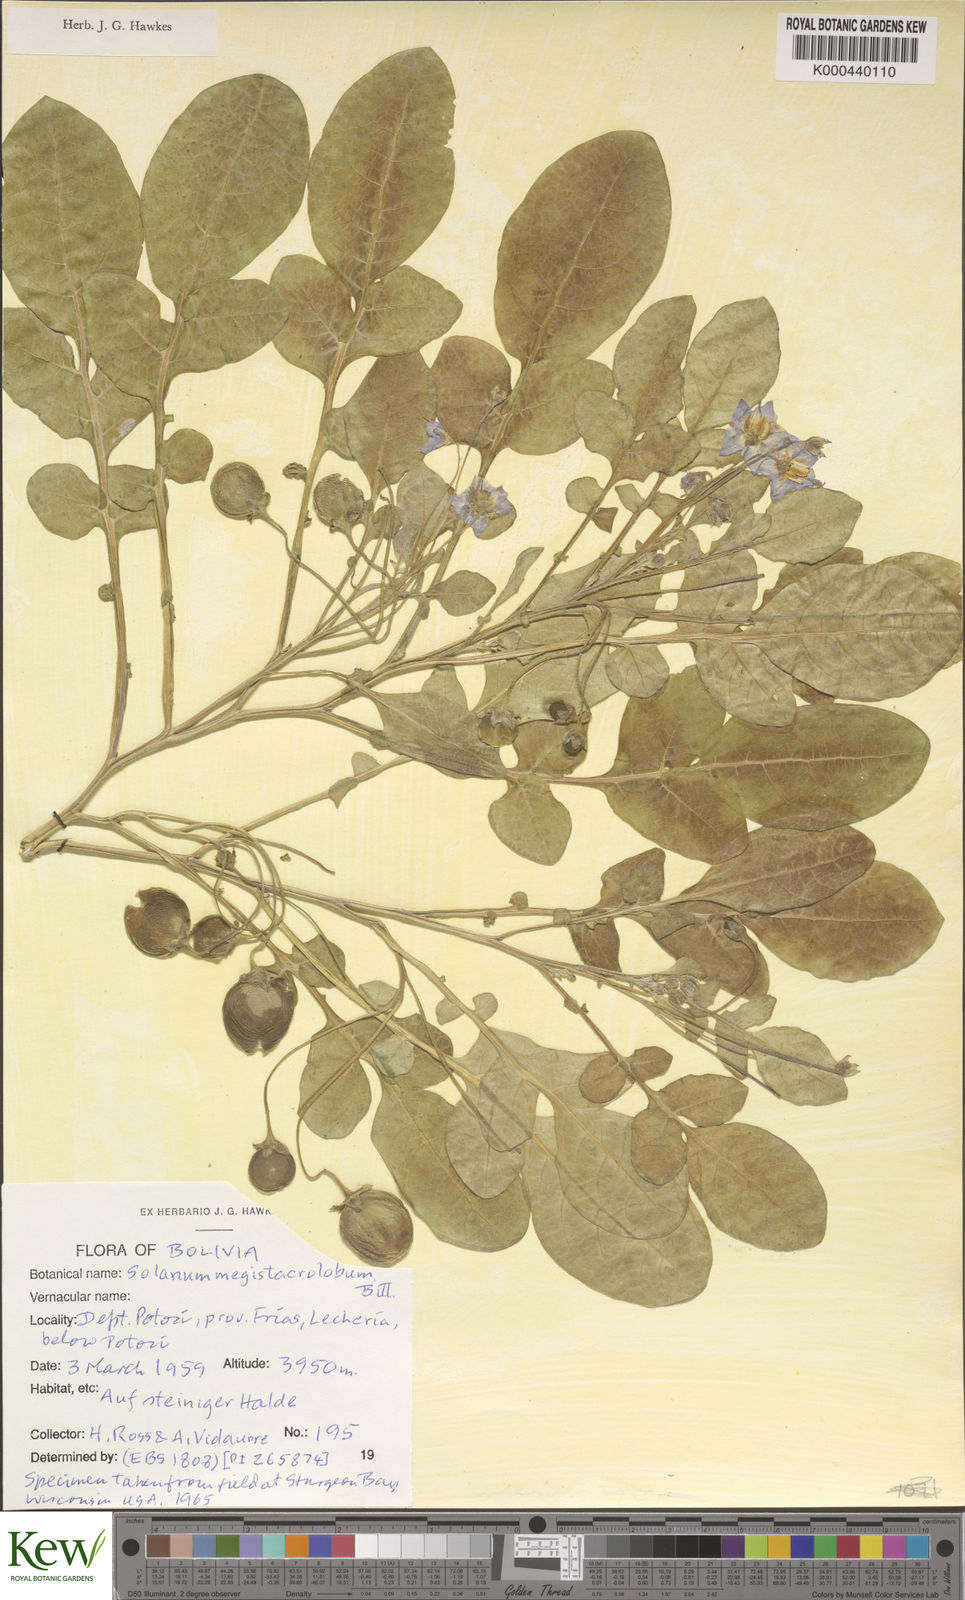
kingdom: Plantae
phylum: Tracheophyta
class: Magnoliopsida
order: Solanales
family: Solanaceae
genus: Solanum
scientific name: Solanum boliviense
